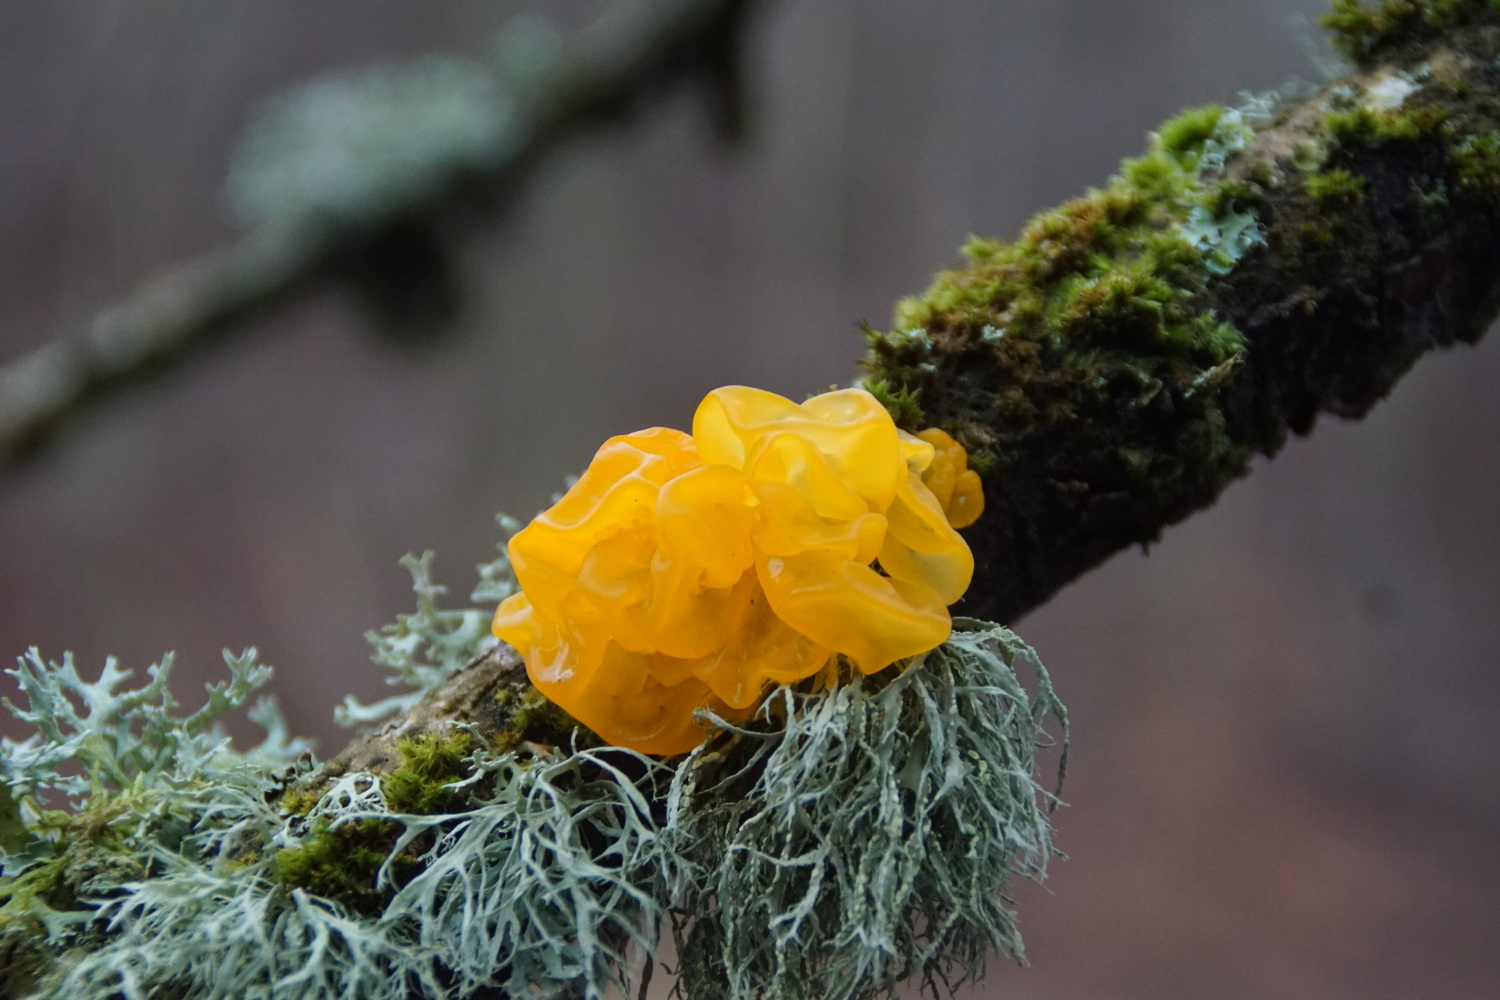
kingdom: Fungi
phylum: Basidiomycota
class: Tremellomycetes
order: Tremellales
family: Tremellaceae
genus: Tremella
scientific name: Tremella mesenterica
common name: gul bævresvamp
